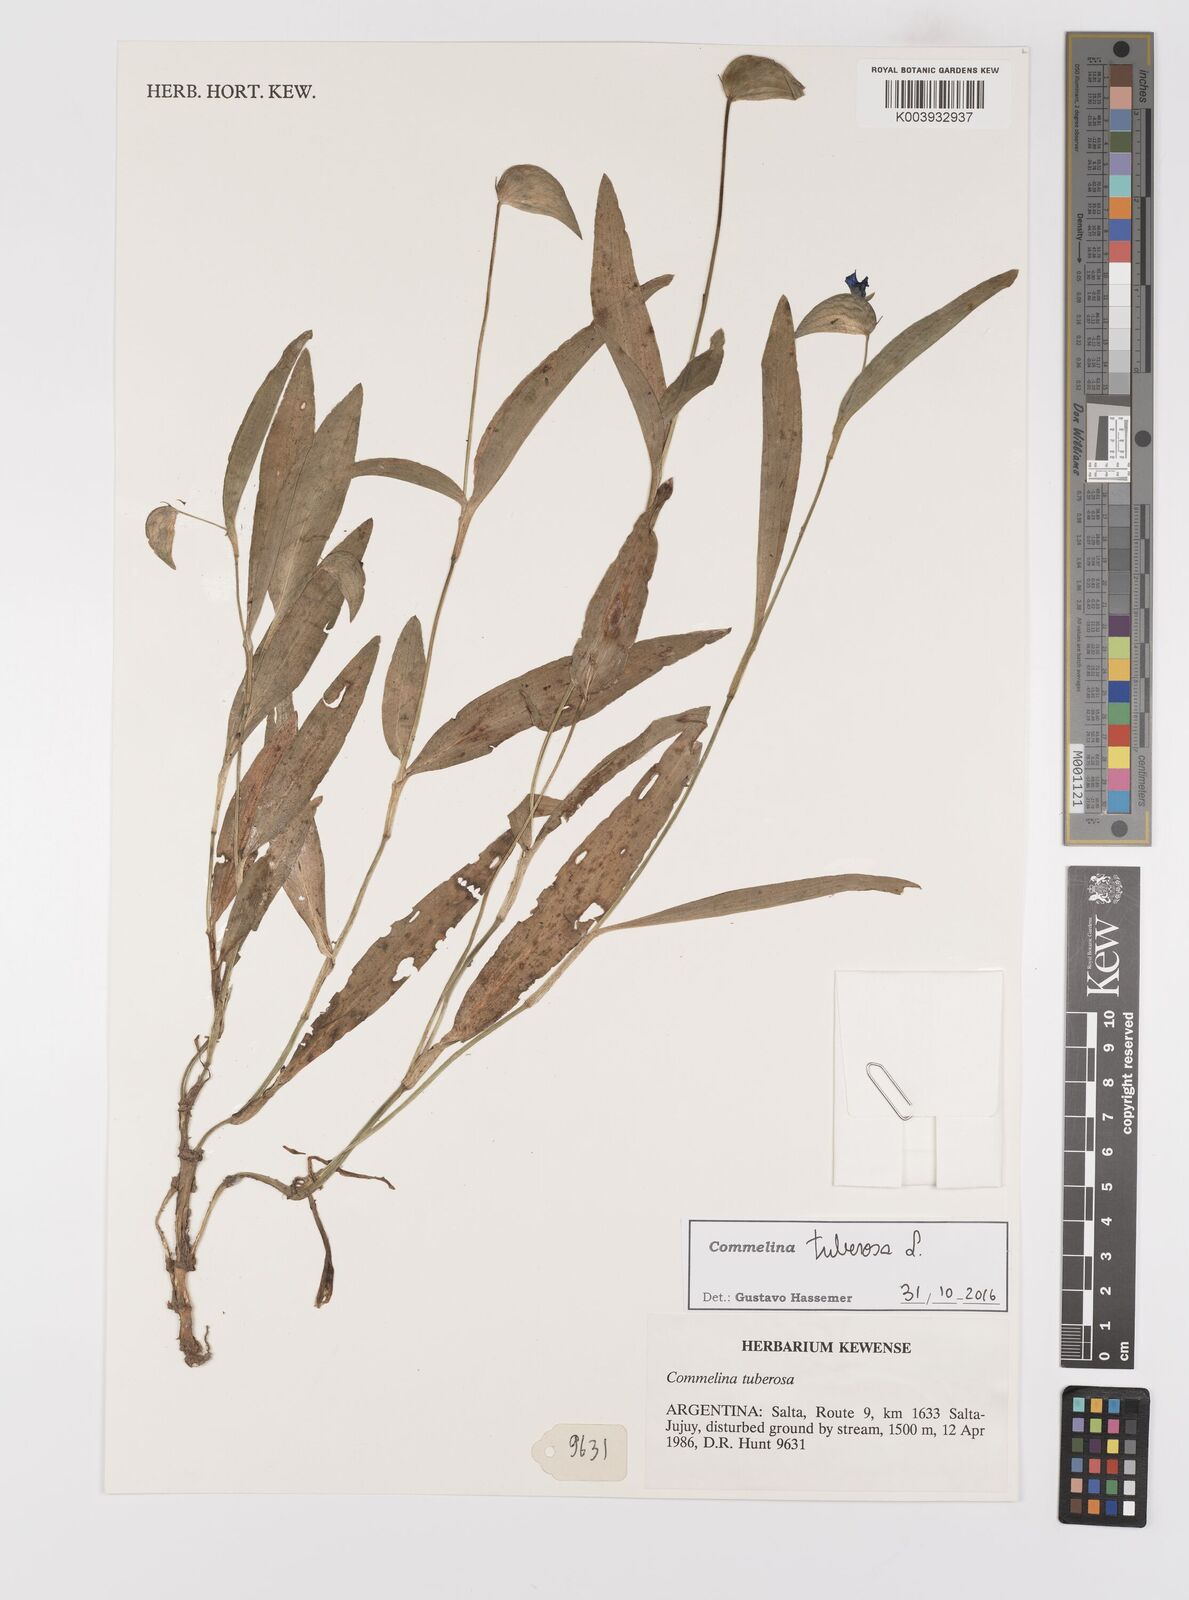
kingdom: Plantae
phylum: Tracheophyta
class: Liliopsida
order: Commelinales
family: Commelinaceae
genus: Commelina
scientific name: Commelina tuberosa
